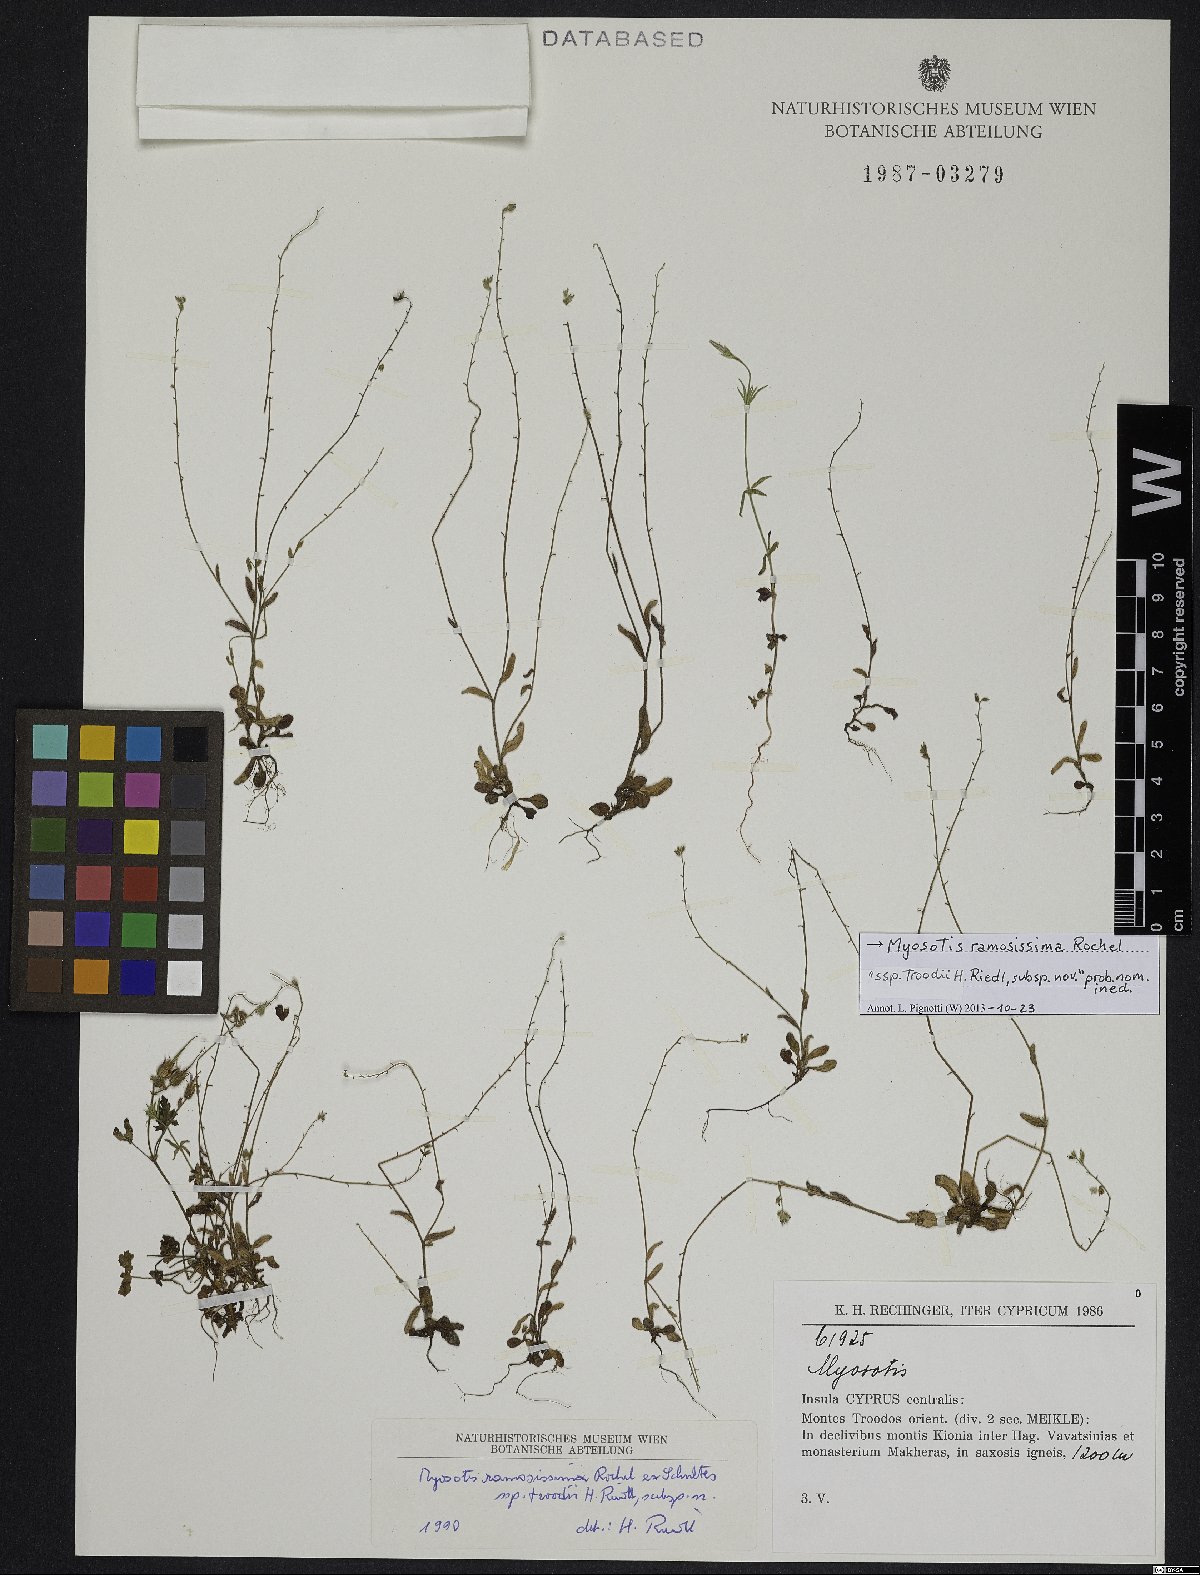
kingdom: Plantae
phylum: Tracheophyta
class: Magnoliopsida
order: Boraginales
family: Boraginaceae
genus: Myosotis
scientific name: Myosotis ramosissima
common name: Early forget-me-not
